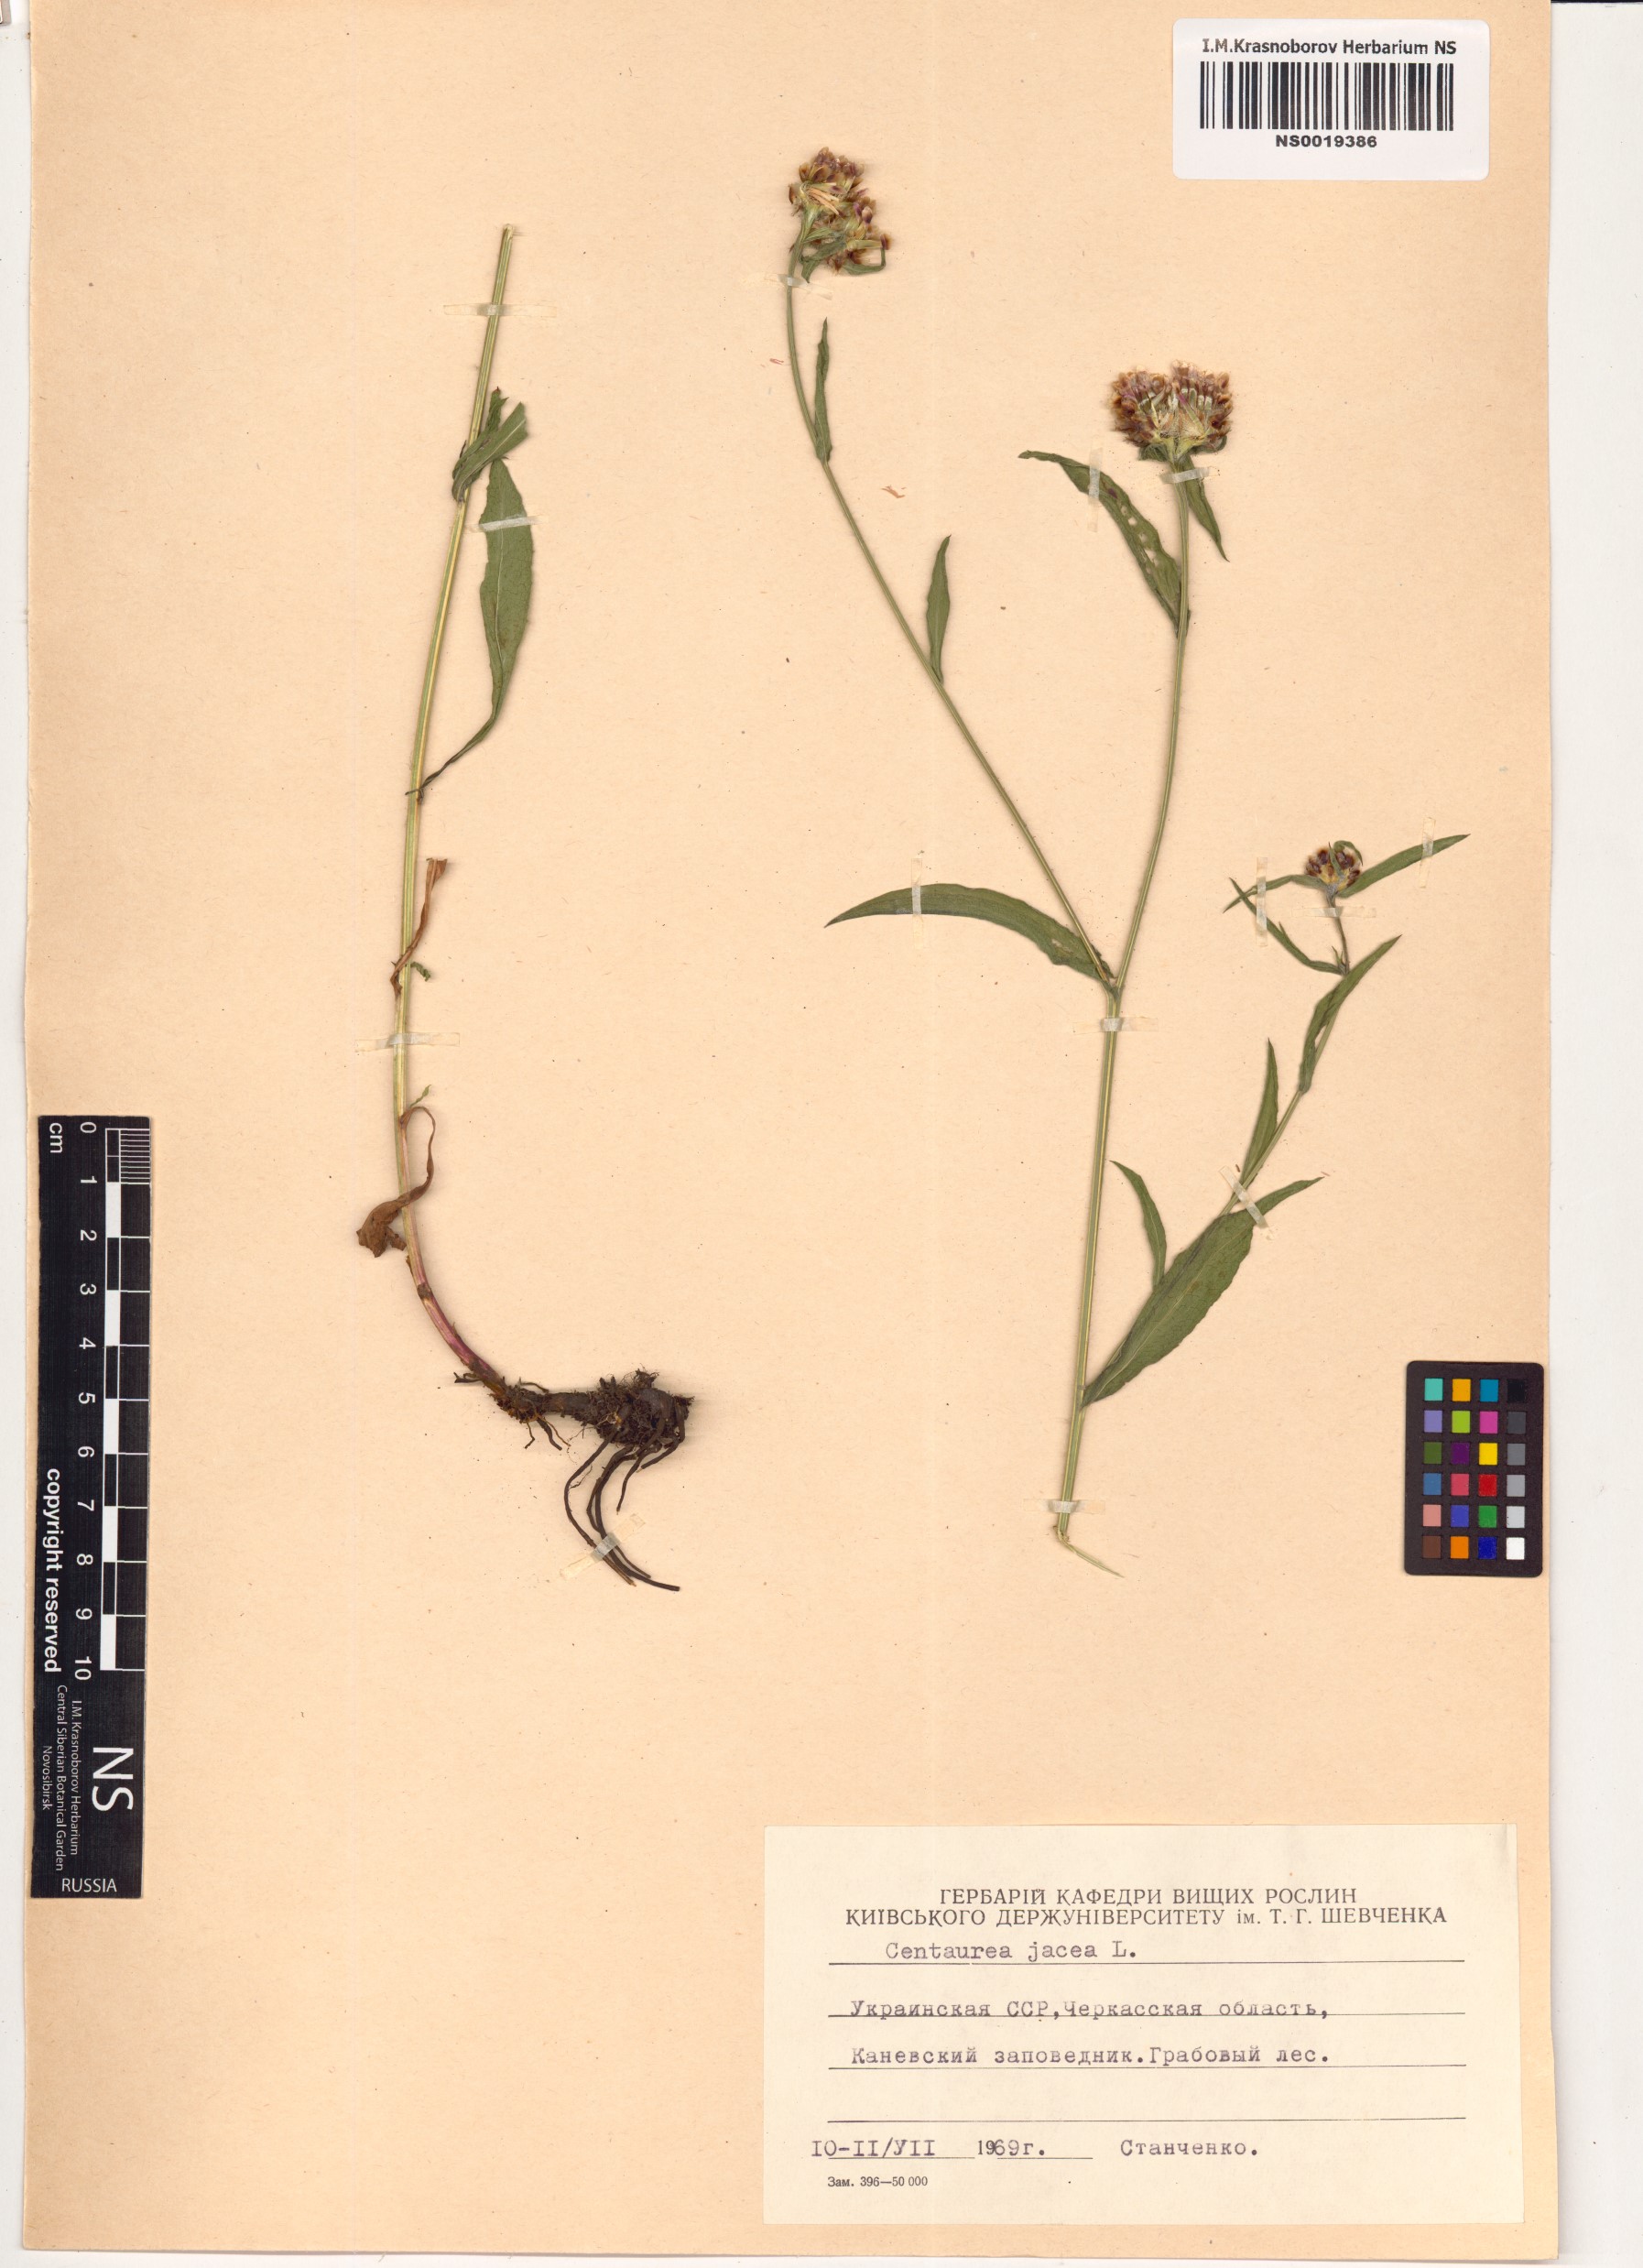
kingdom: Plantae
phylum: Tracheophyta
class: Magnoliopsida
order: Asterales
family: Asteraceae
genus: Centaurea
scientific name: Centaurea jacea
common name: Brown knapweed
